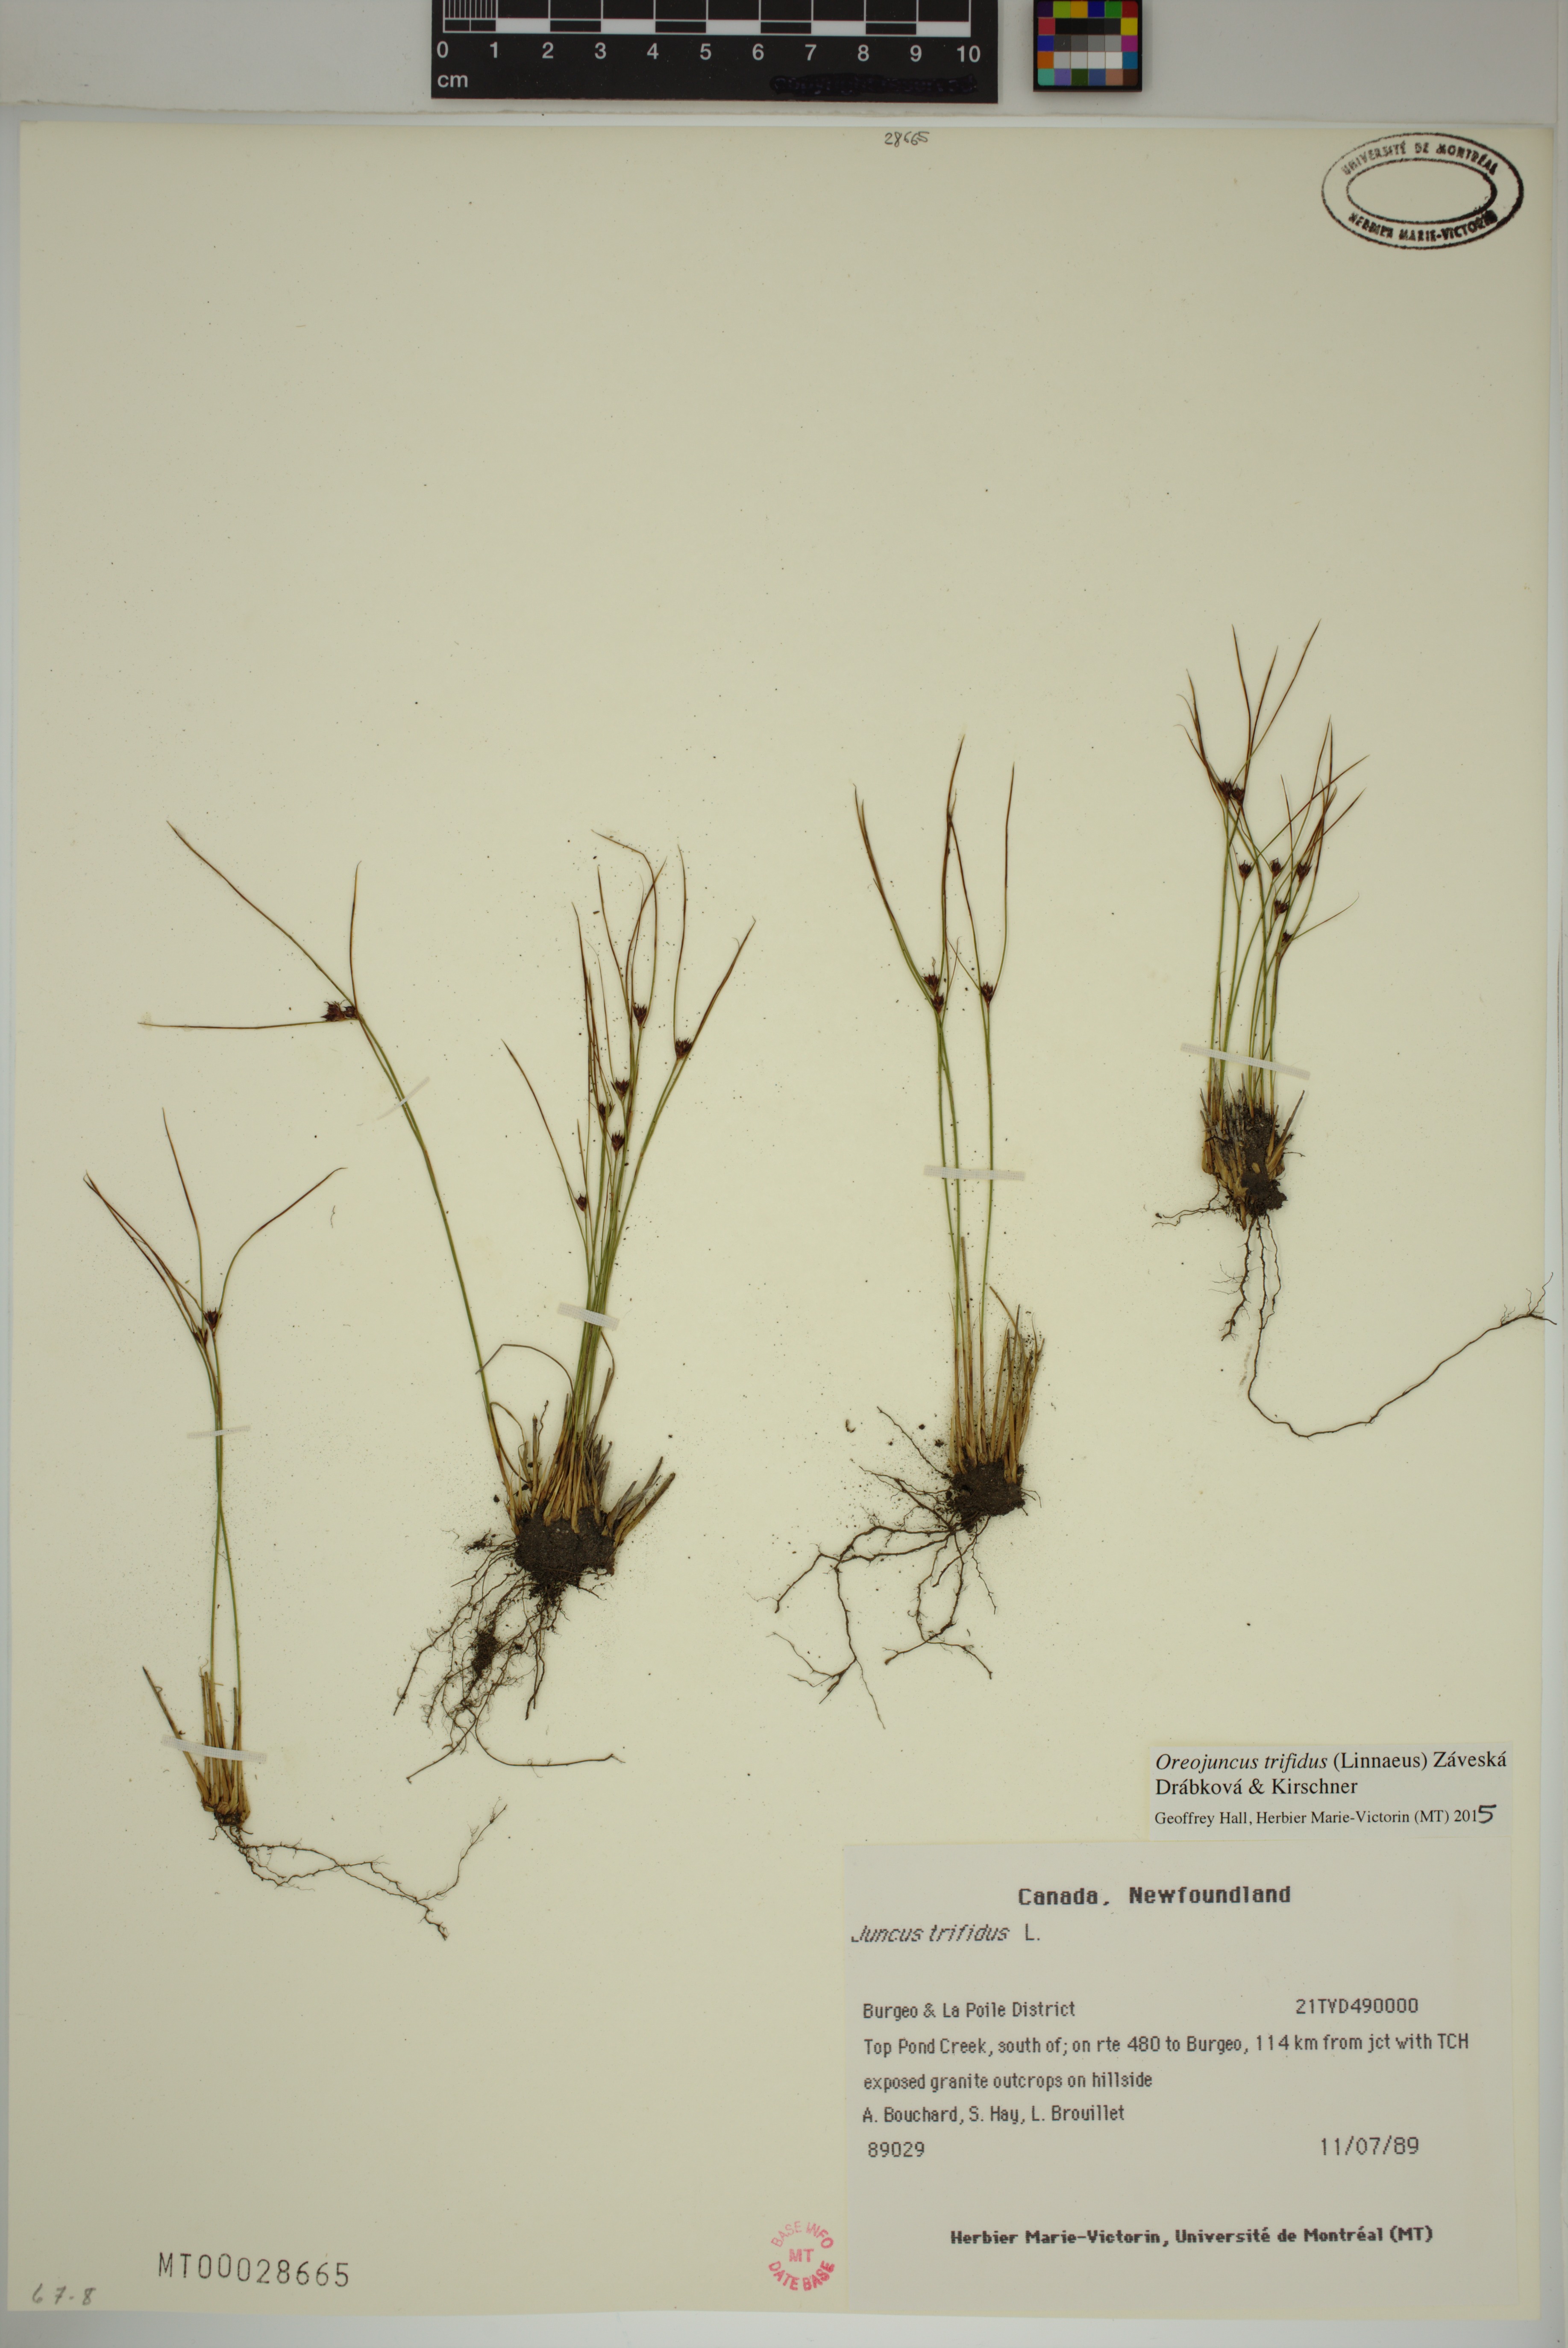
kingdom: Plantae
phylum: Tracheophyta
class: Liliopsida
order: Poales
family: Juncaceae
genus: Oreojuncus
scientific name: Oreojuncus trifidus
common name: Highland rush
